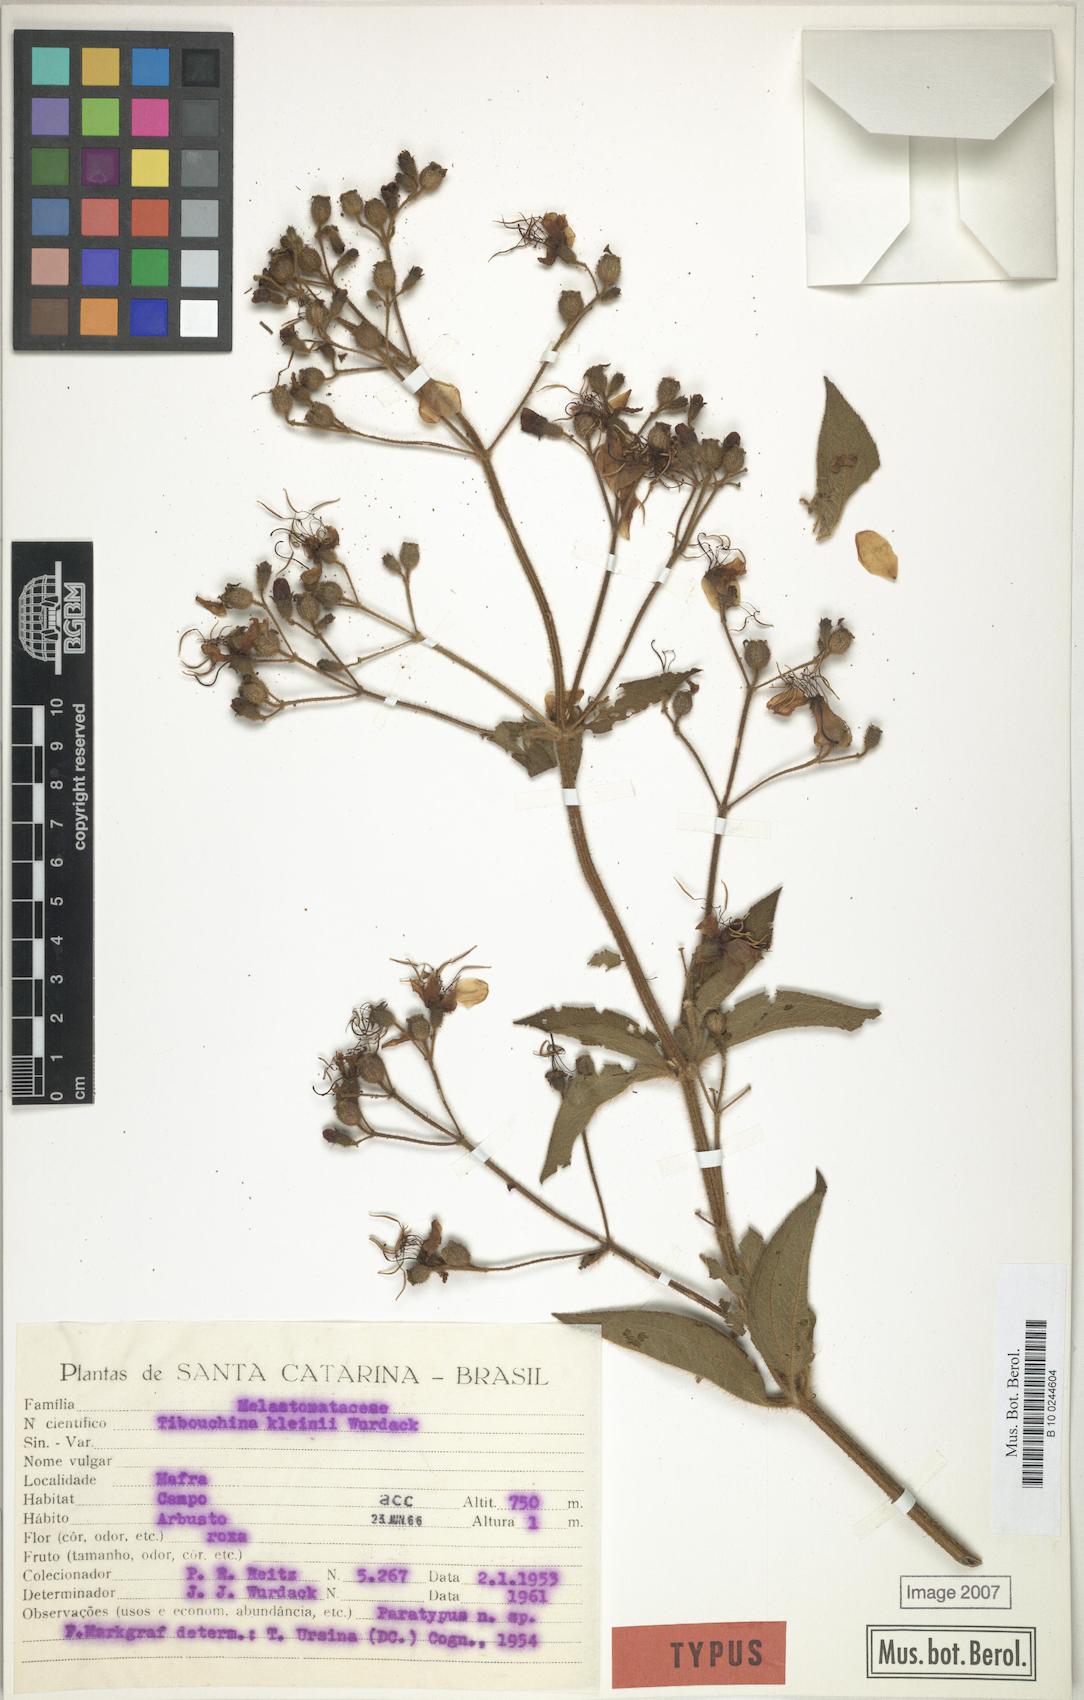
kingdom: Plantae
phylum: Tracheophyta
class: Magnoliopsida
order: Myrtales
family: Melastomataceae
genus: Pleroma
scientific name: Pleroma kleinii
